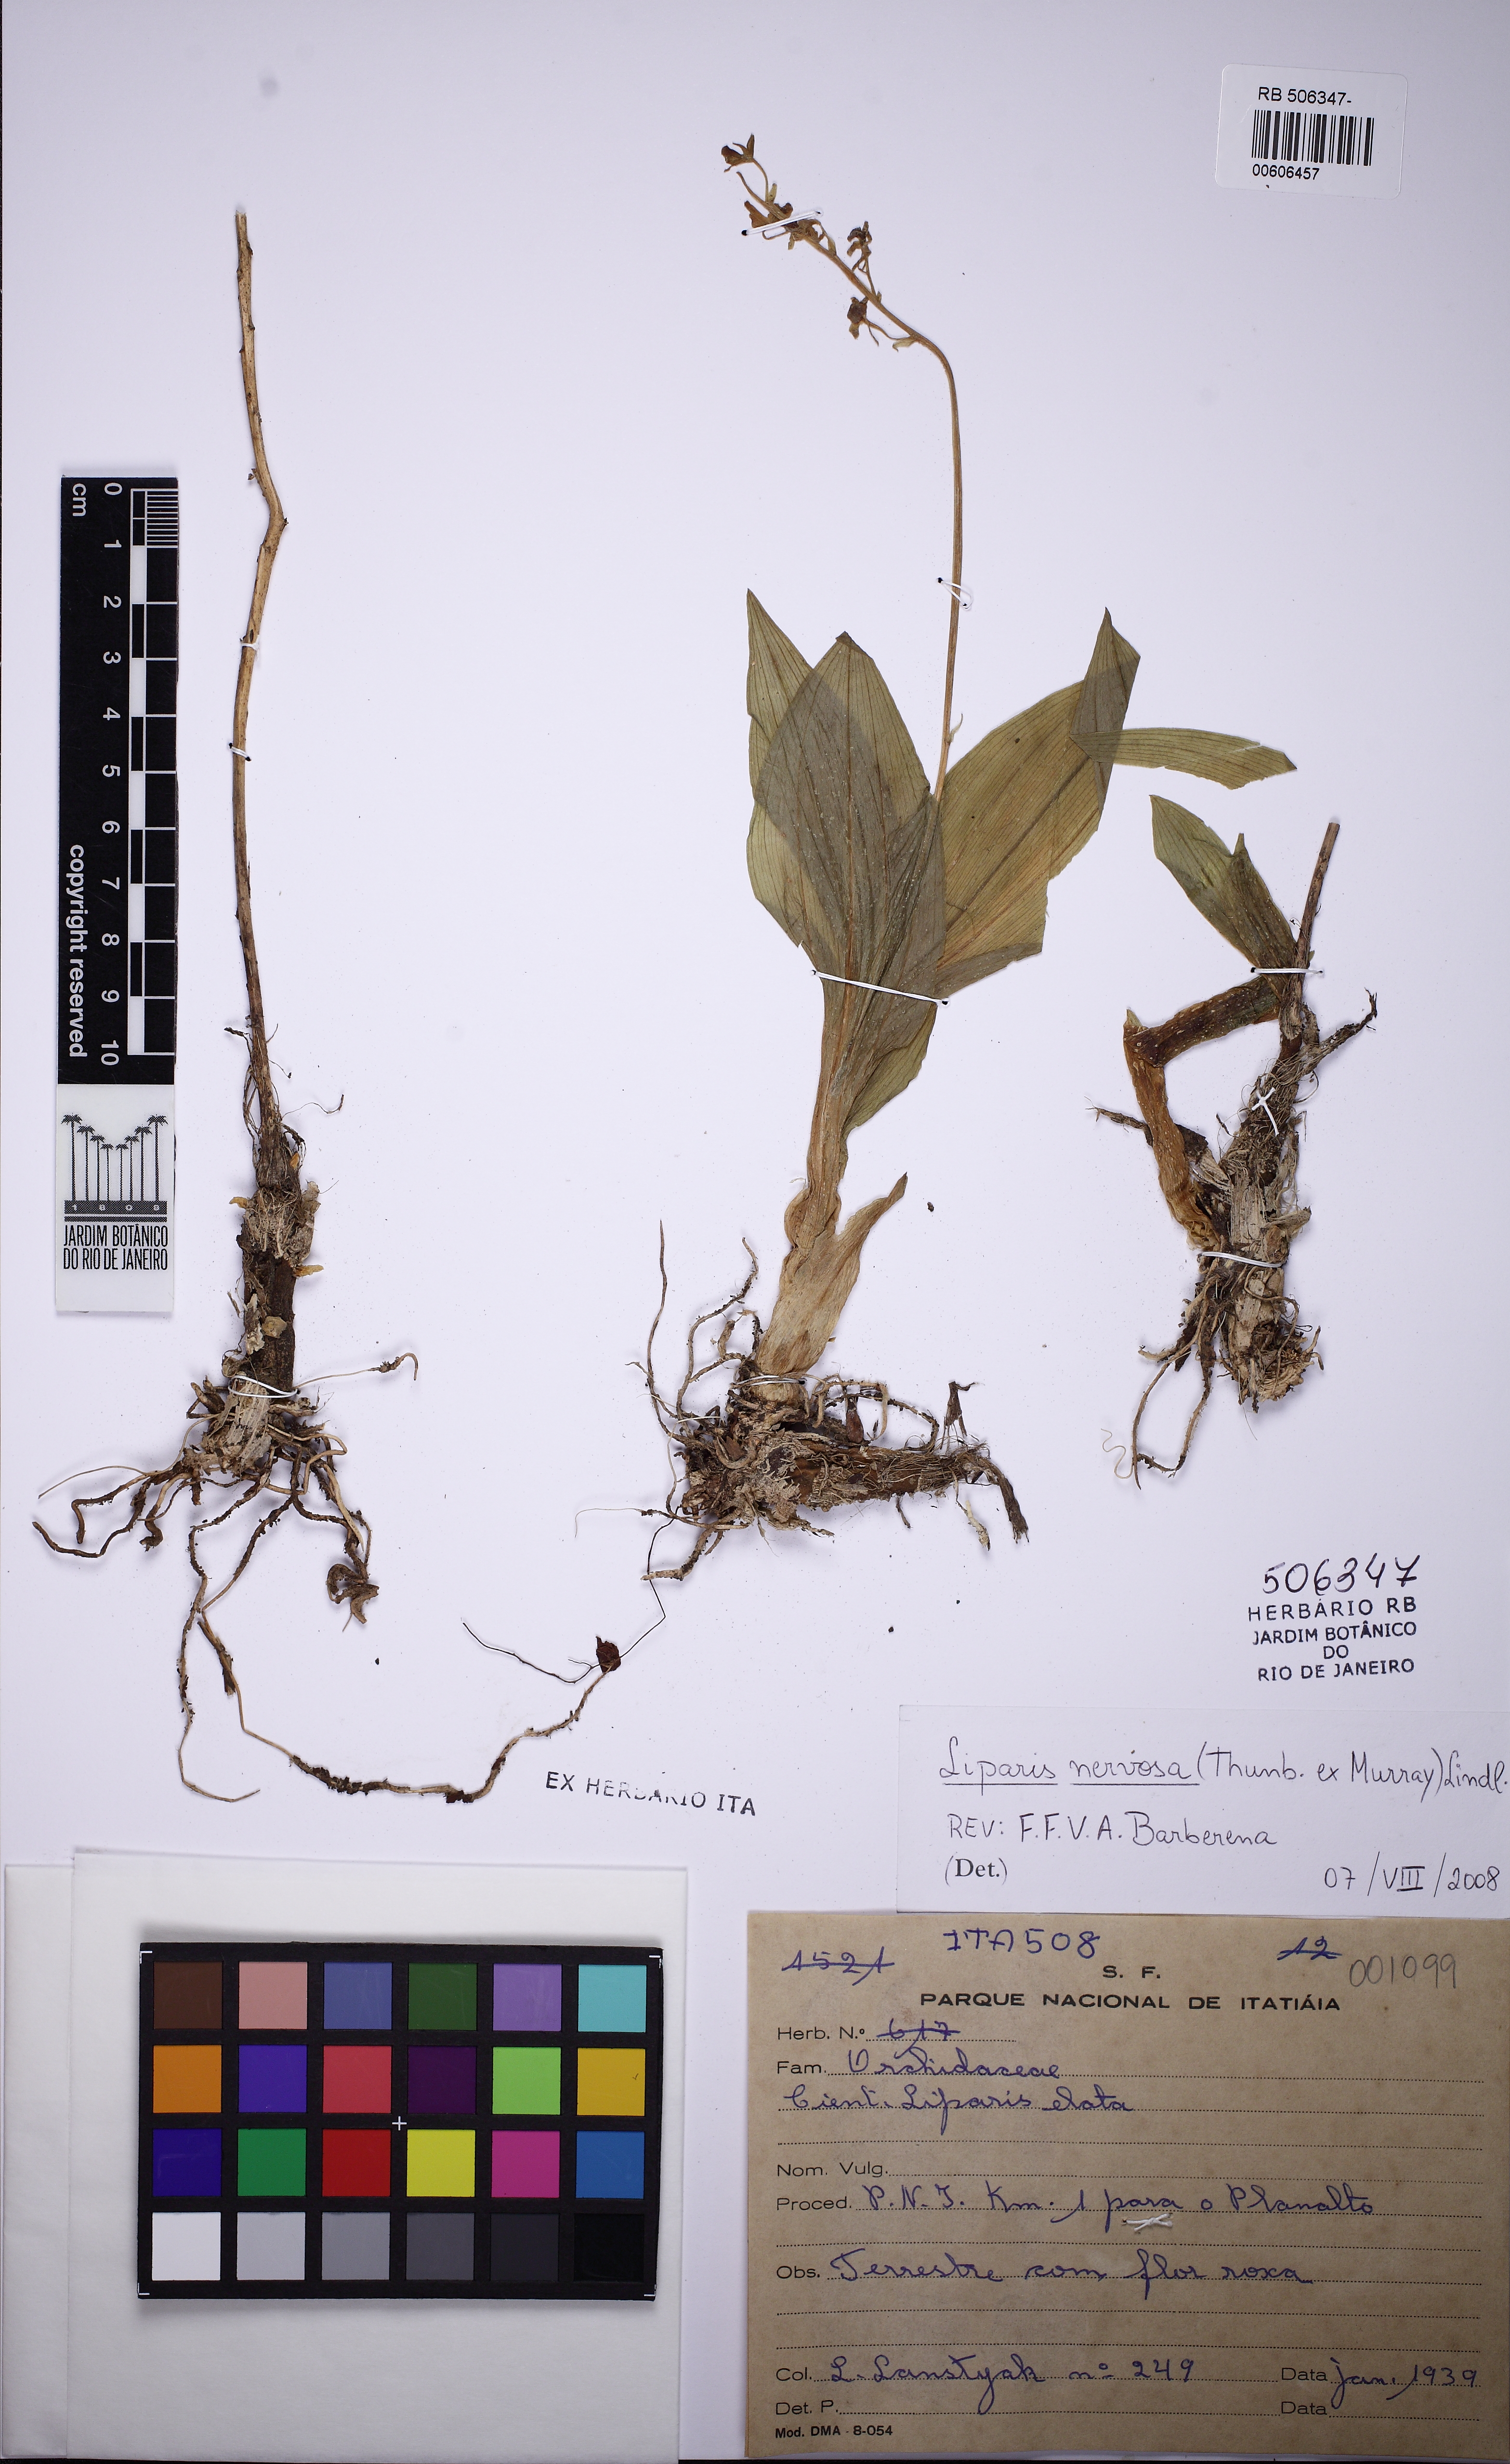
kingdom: Plantae
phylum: Tracheophyta
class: Liliopsida
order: Asparagales
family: Orchidaceae
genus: Liparis
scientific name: Liparis nervosa
